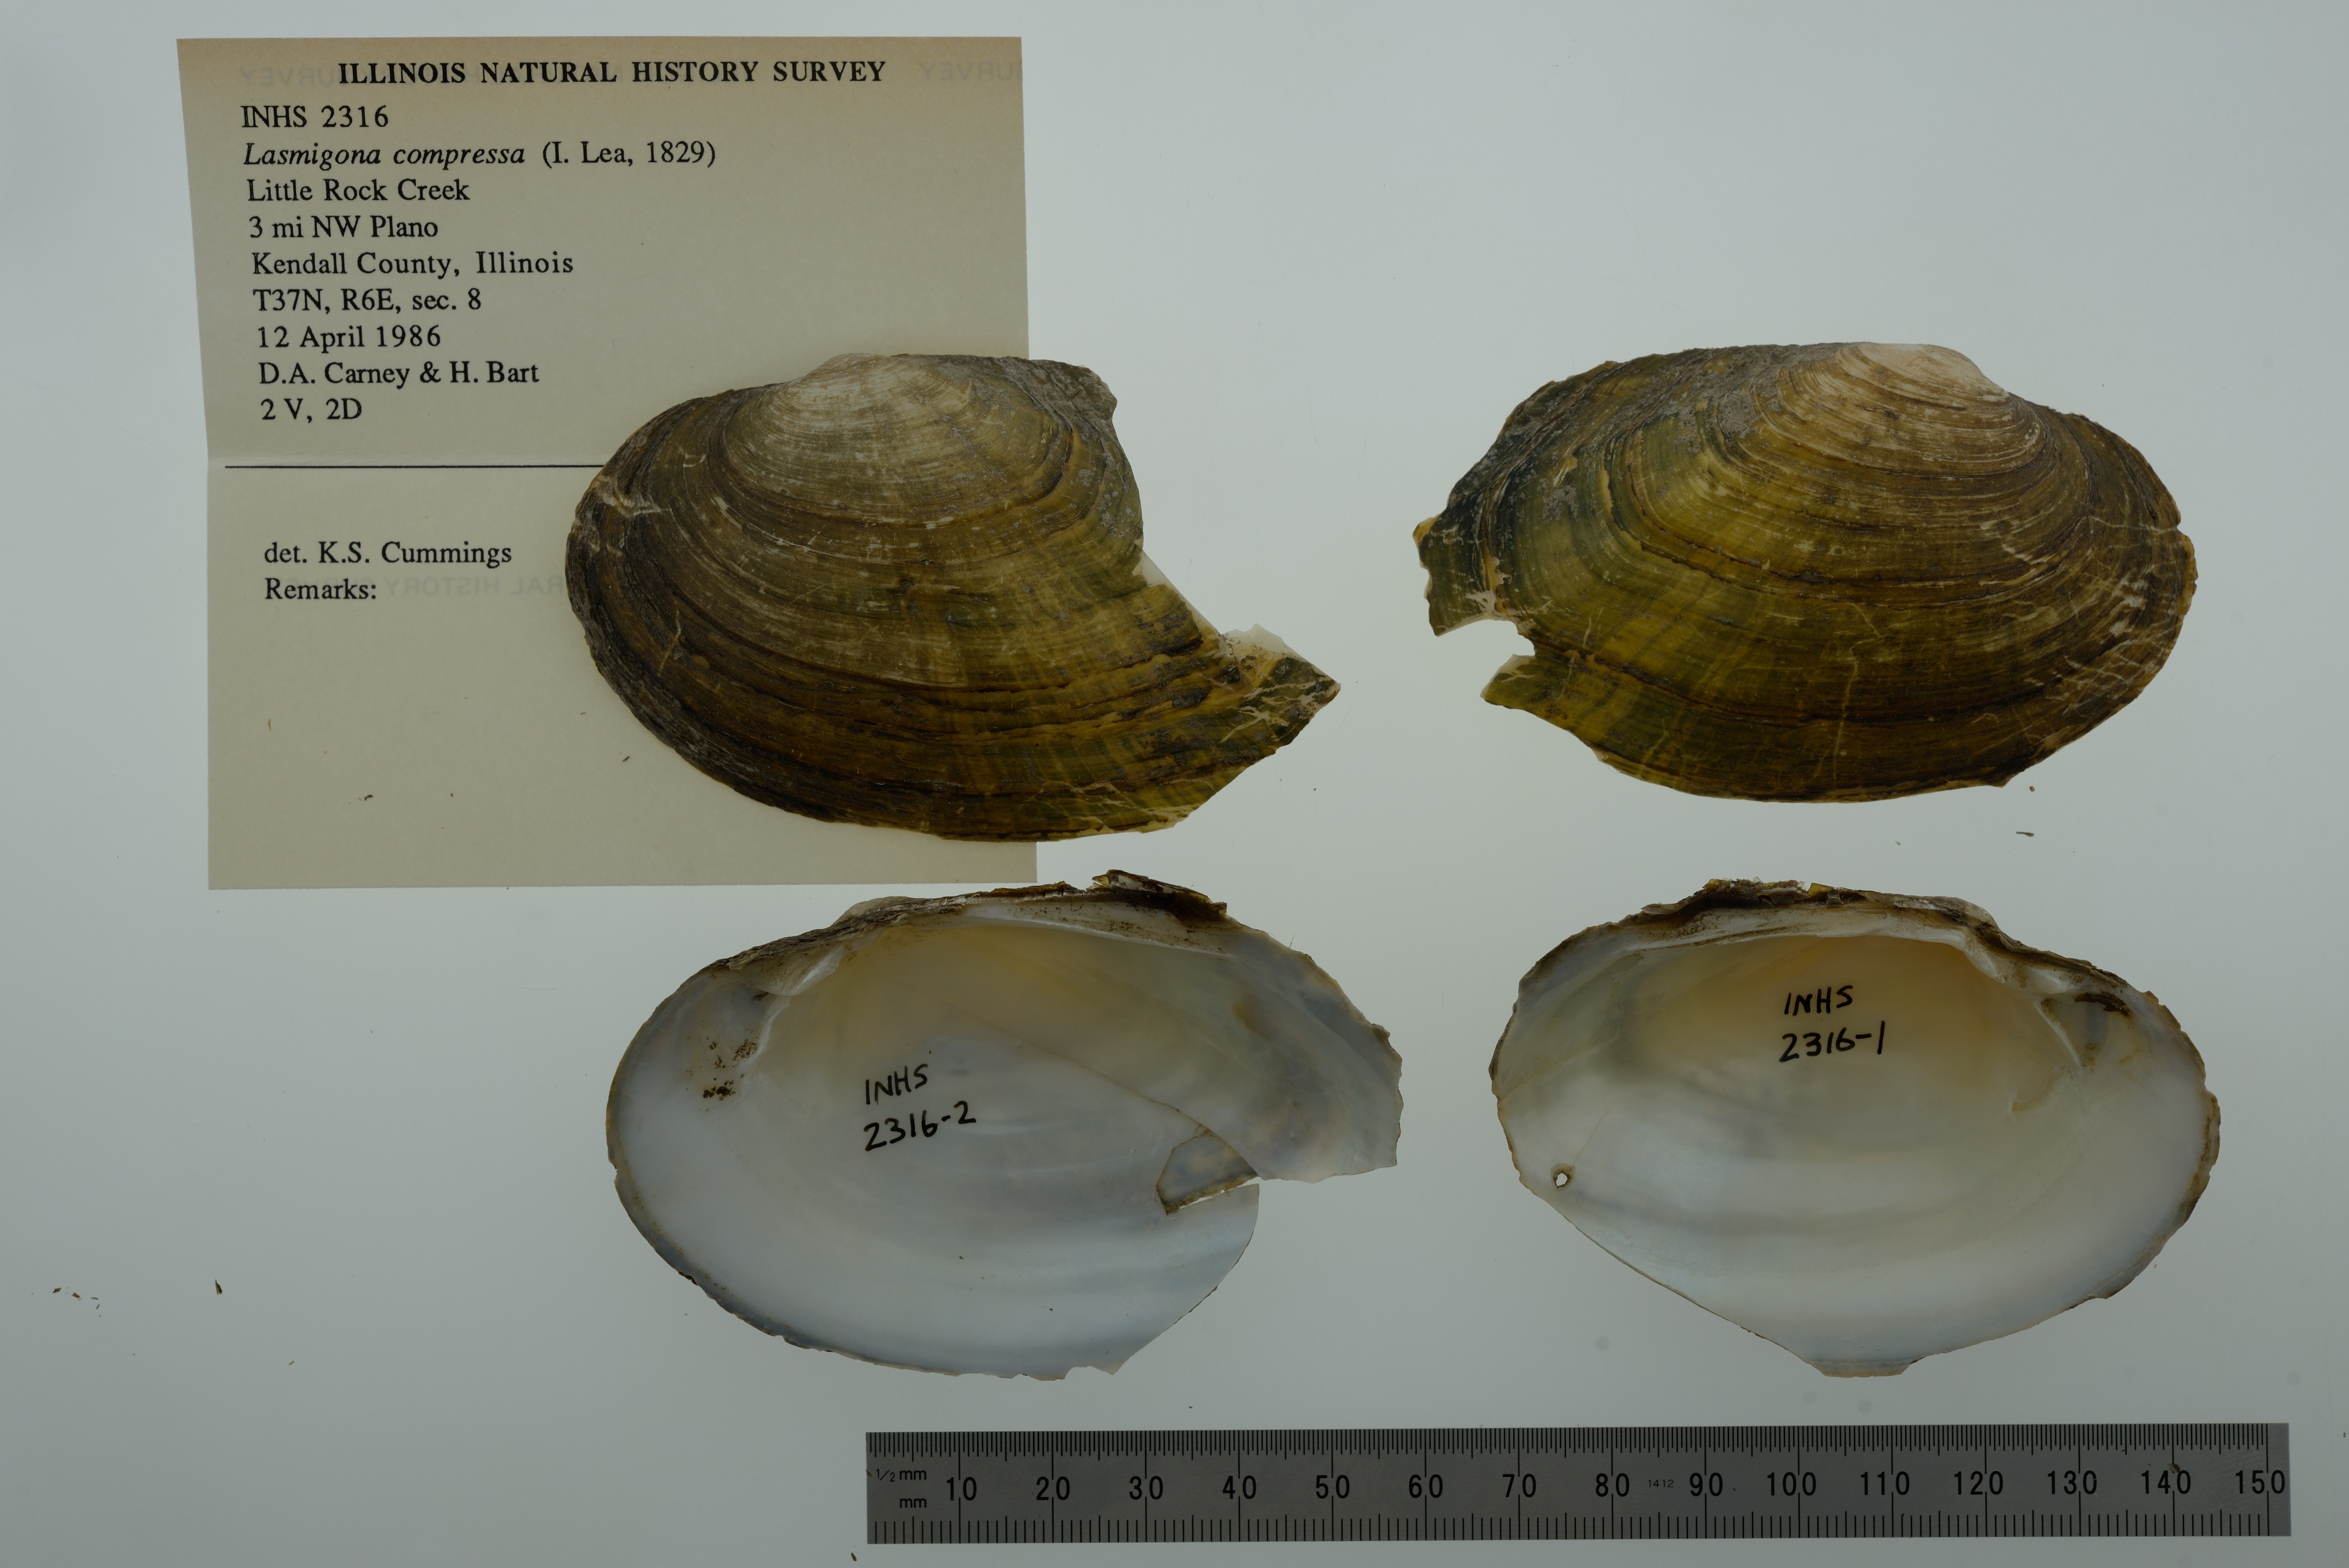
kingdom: Animalia
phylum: Mollusca
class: Bivalvia
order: Unionida
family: Unionidae
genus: Lasmigona
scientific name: Lasmigona compressa
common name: Creek heelsplitter
